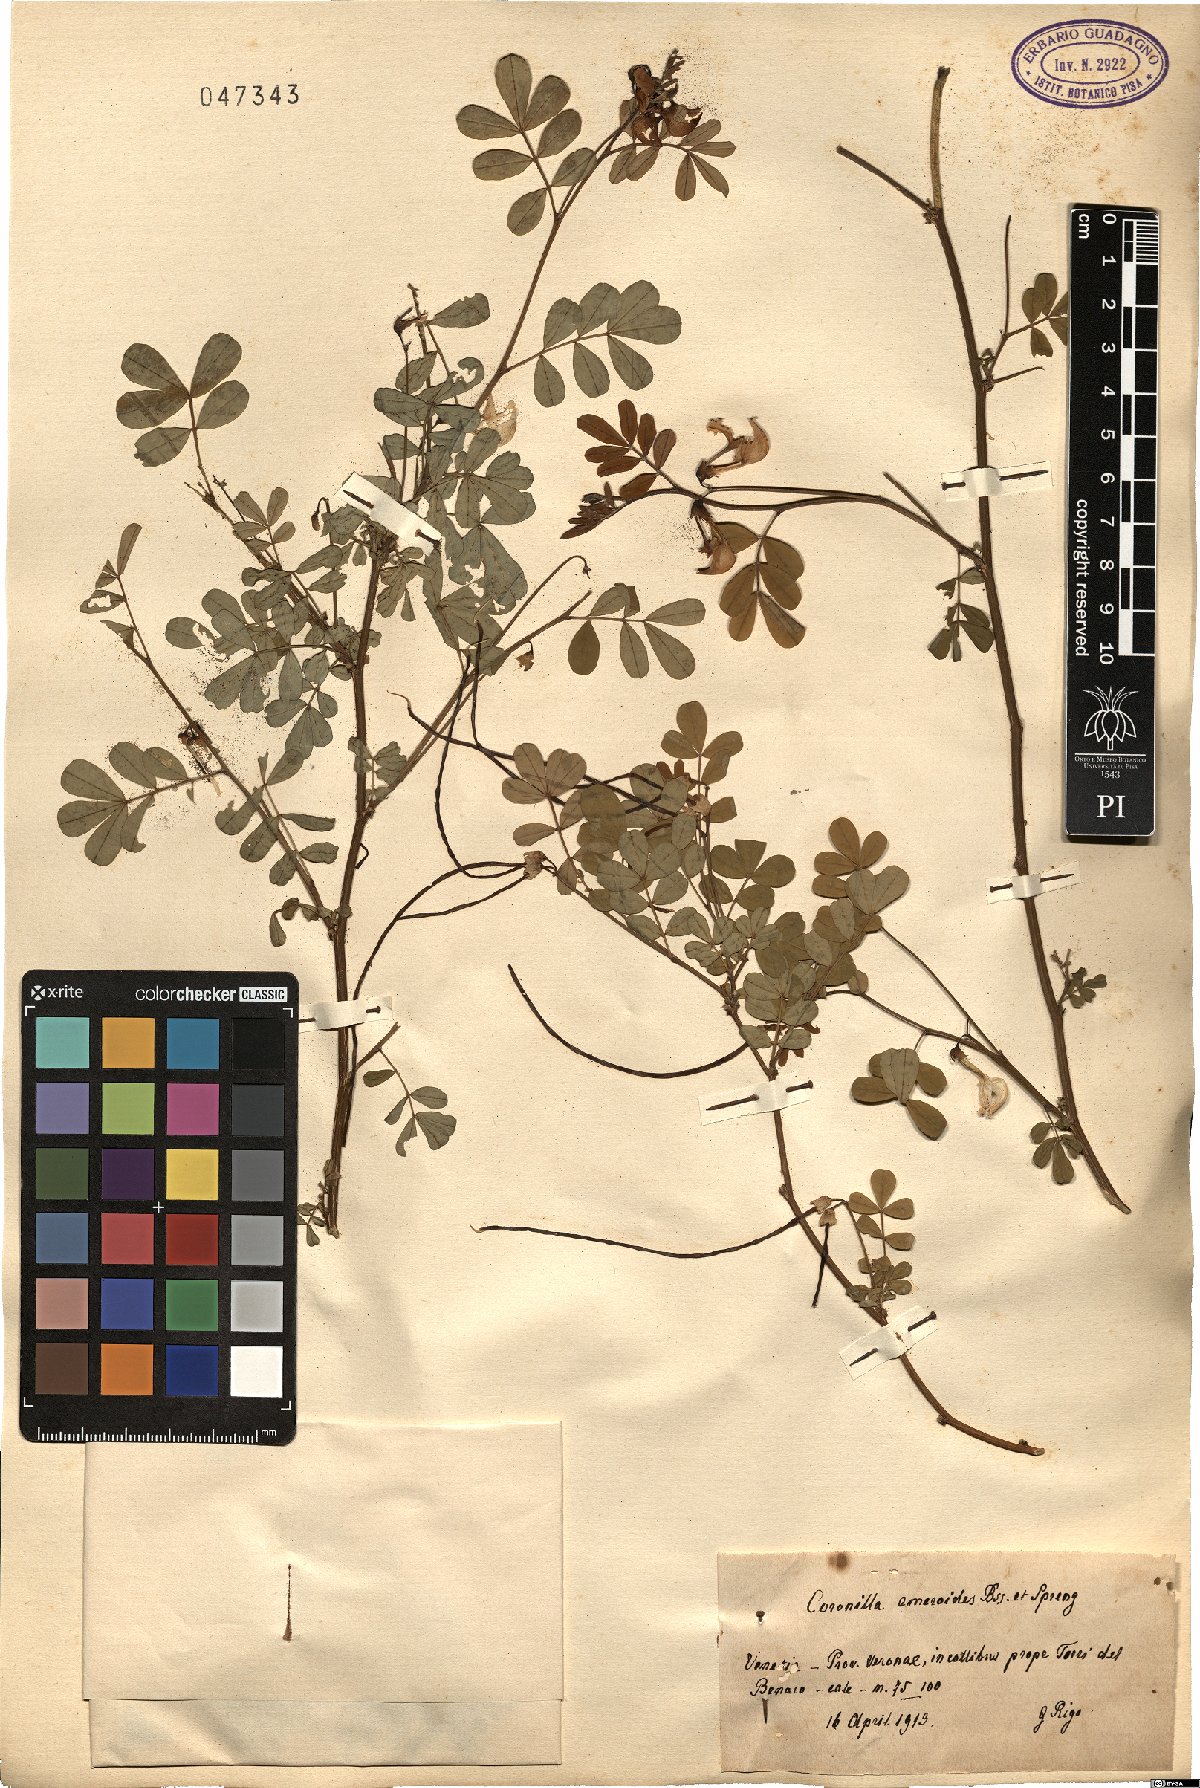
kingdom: Plantae
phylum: Tracheophyta
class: Magnoliopsida
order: Fabales
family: Fabaceae
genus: Hippocrepis
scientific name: Hippocrepis emerus
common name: Scorpion senna
